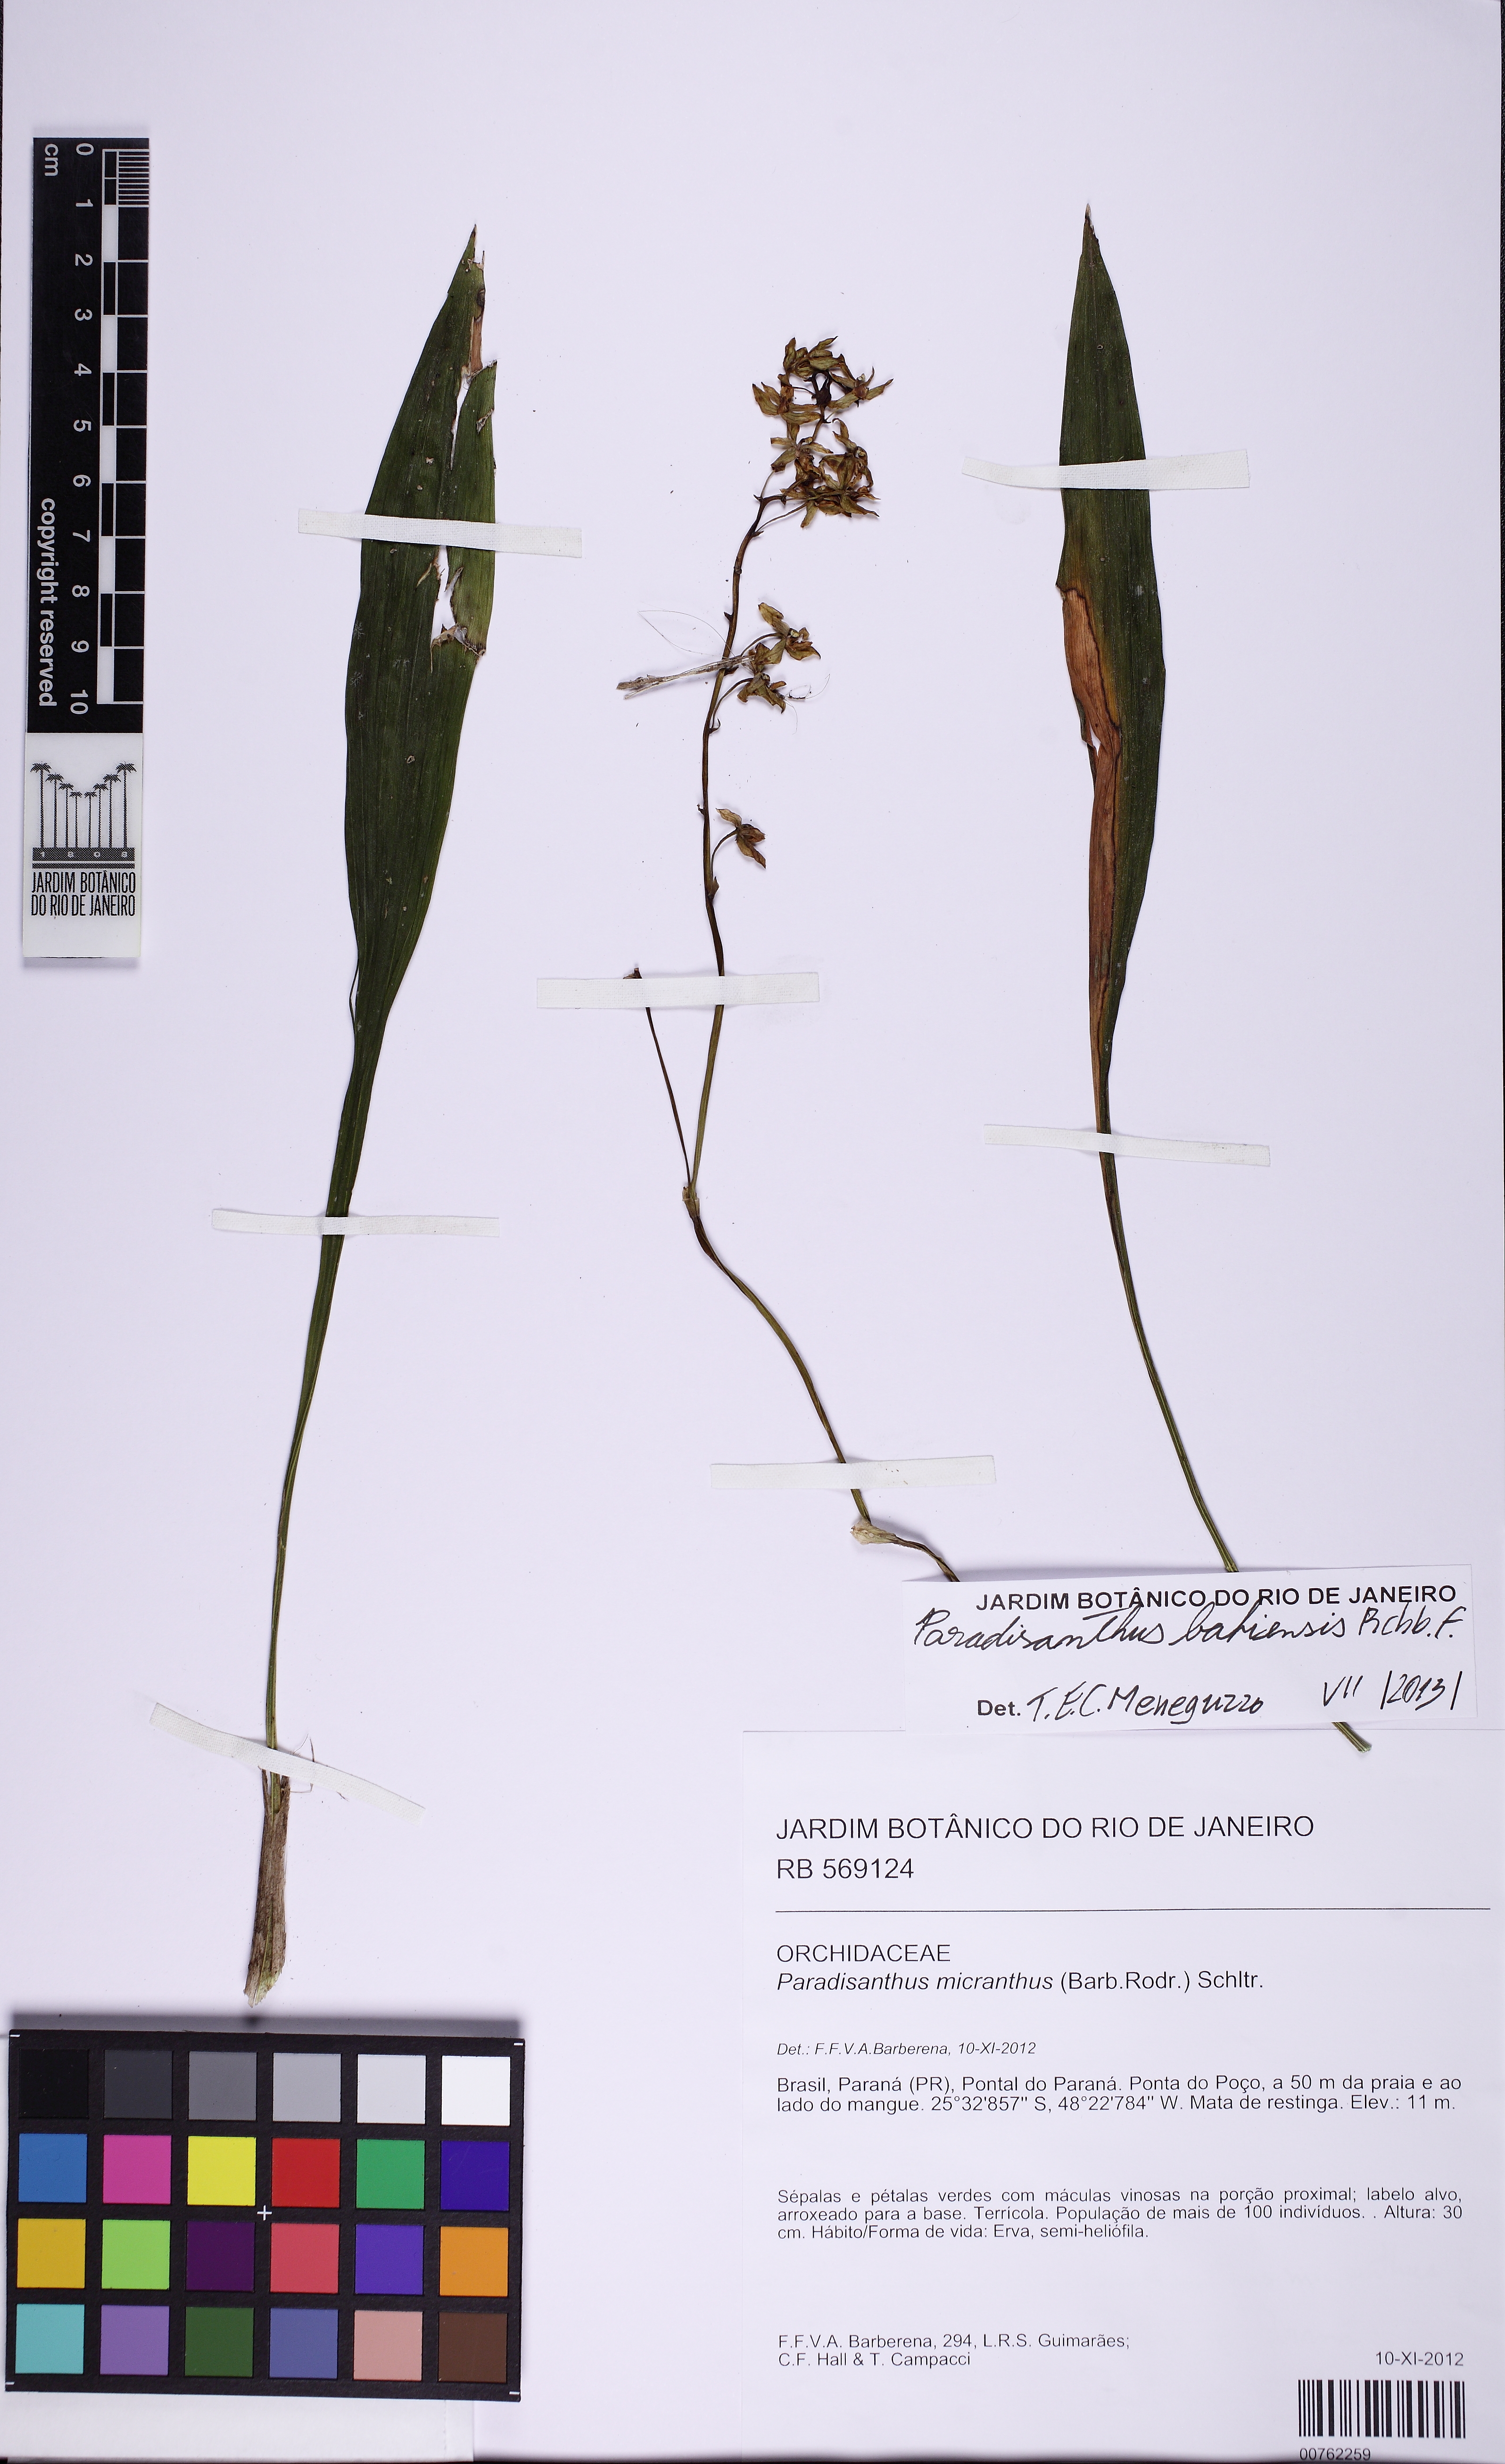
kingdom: Plantae
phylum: Tracheophyta
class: Liliopsida
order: Asparagales
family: Orchidaceae
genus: Paradisanthus
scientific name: Paradisanthus bahiensis
